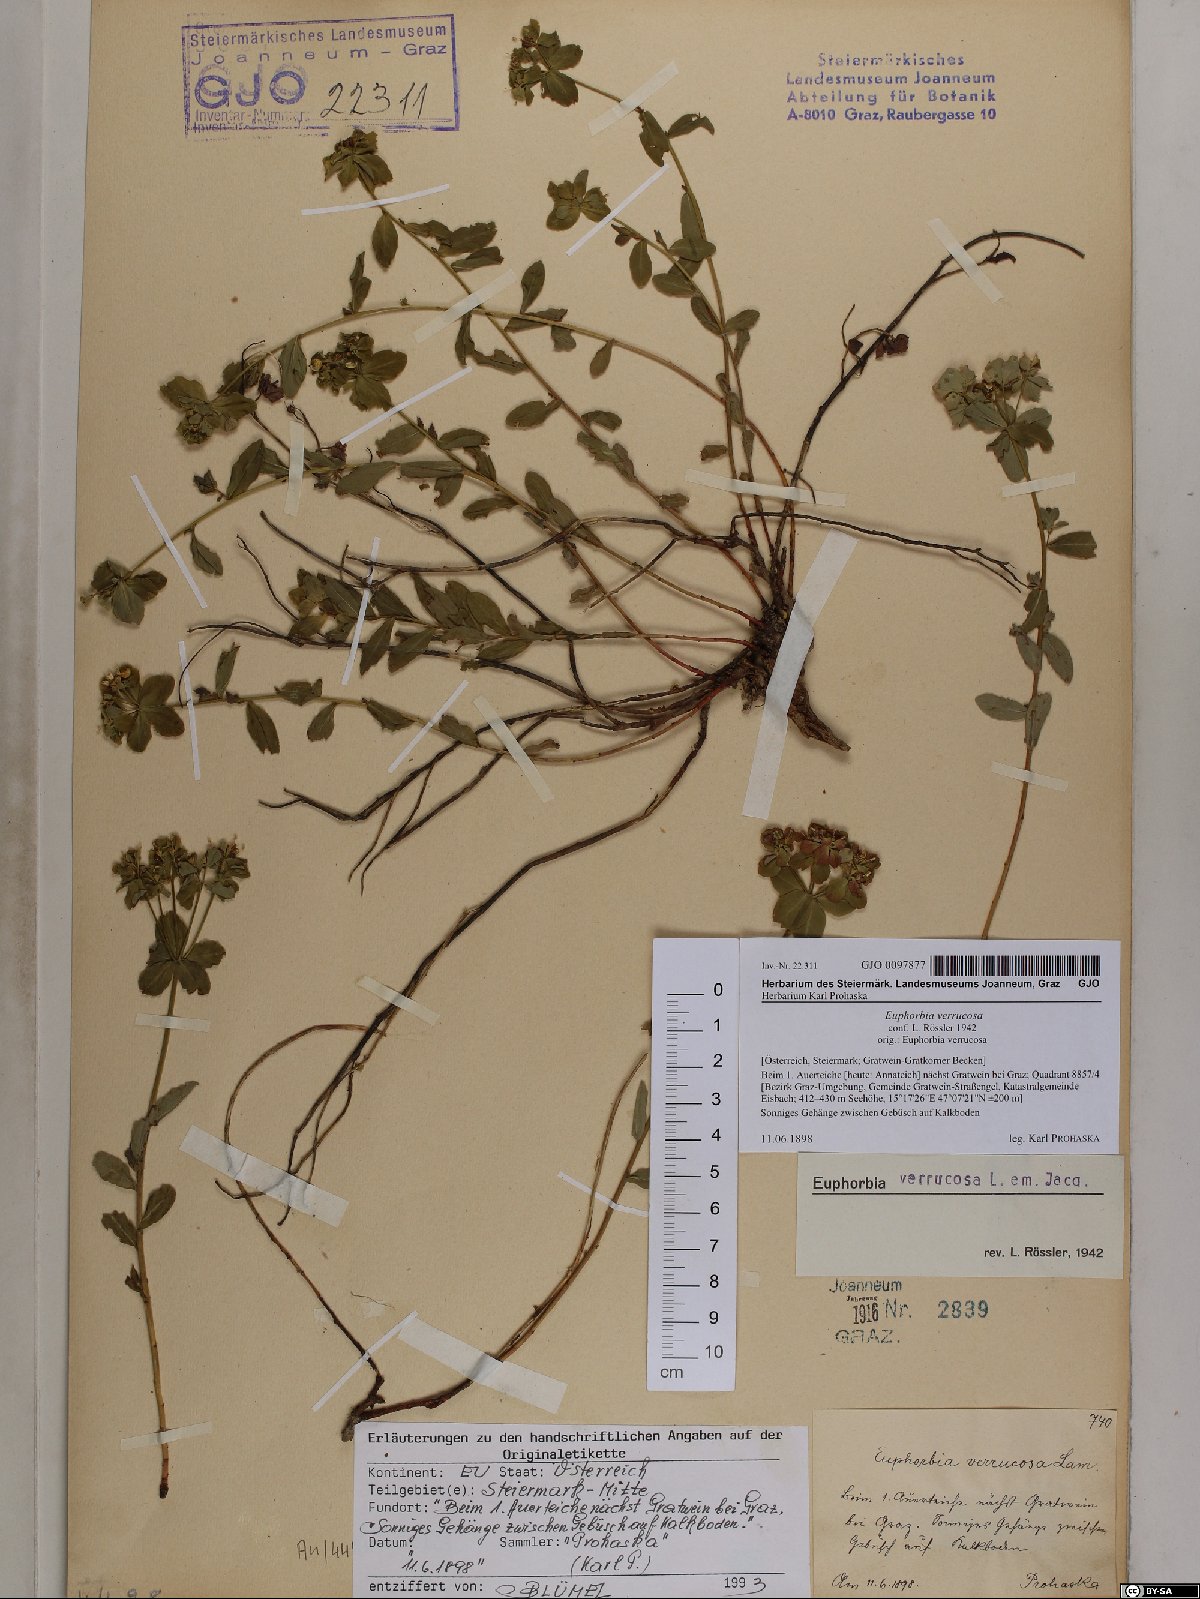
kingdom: Plantae
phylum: Tracheophyta
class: Magnoliopsida
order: Malpighiales
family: Euphorbiaceae
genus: Euphorbia
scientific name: Euphorbia verrucosa
